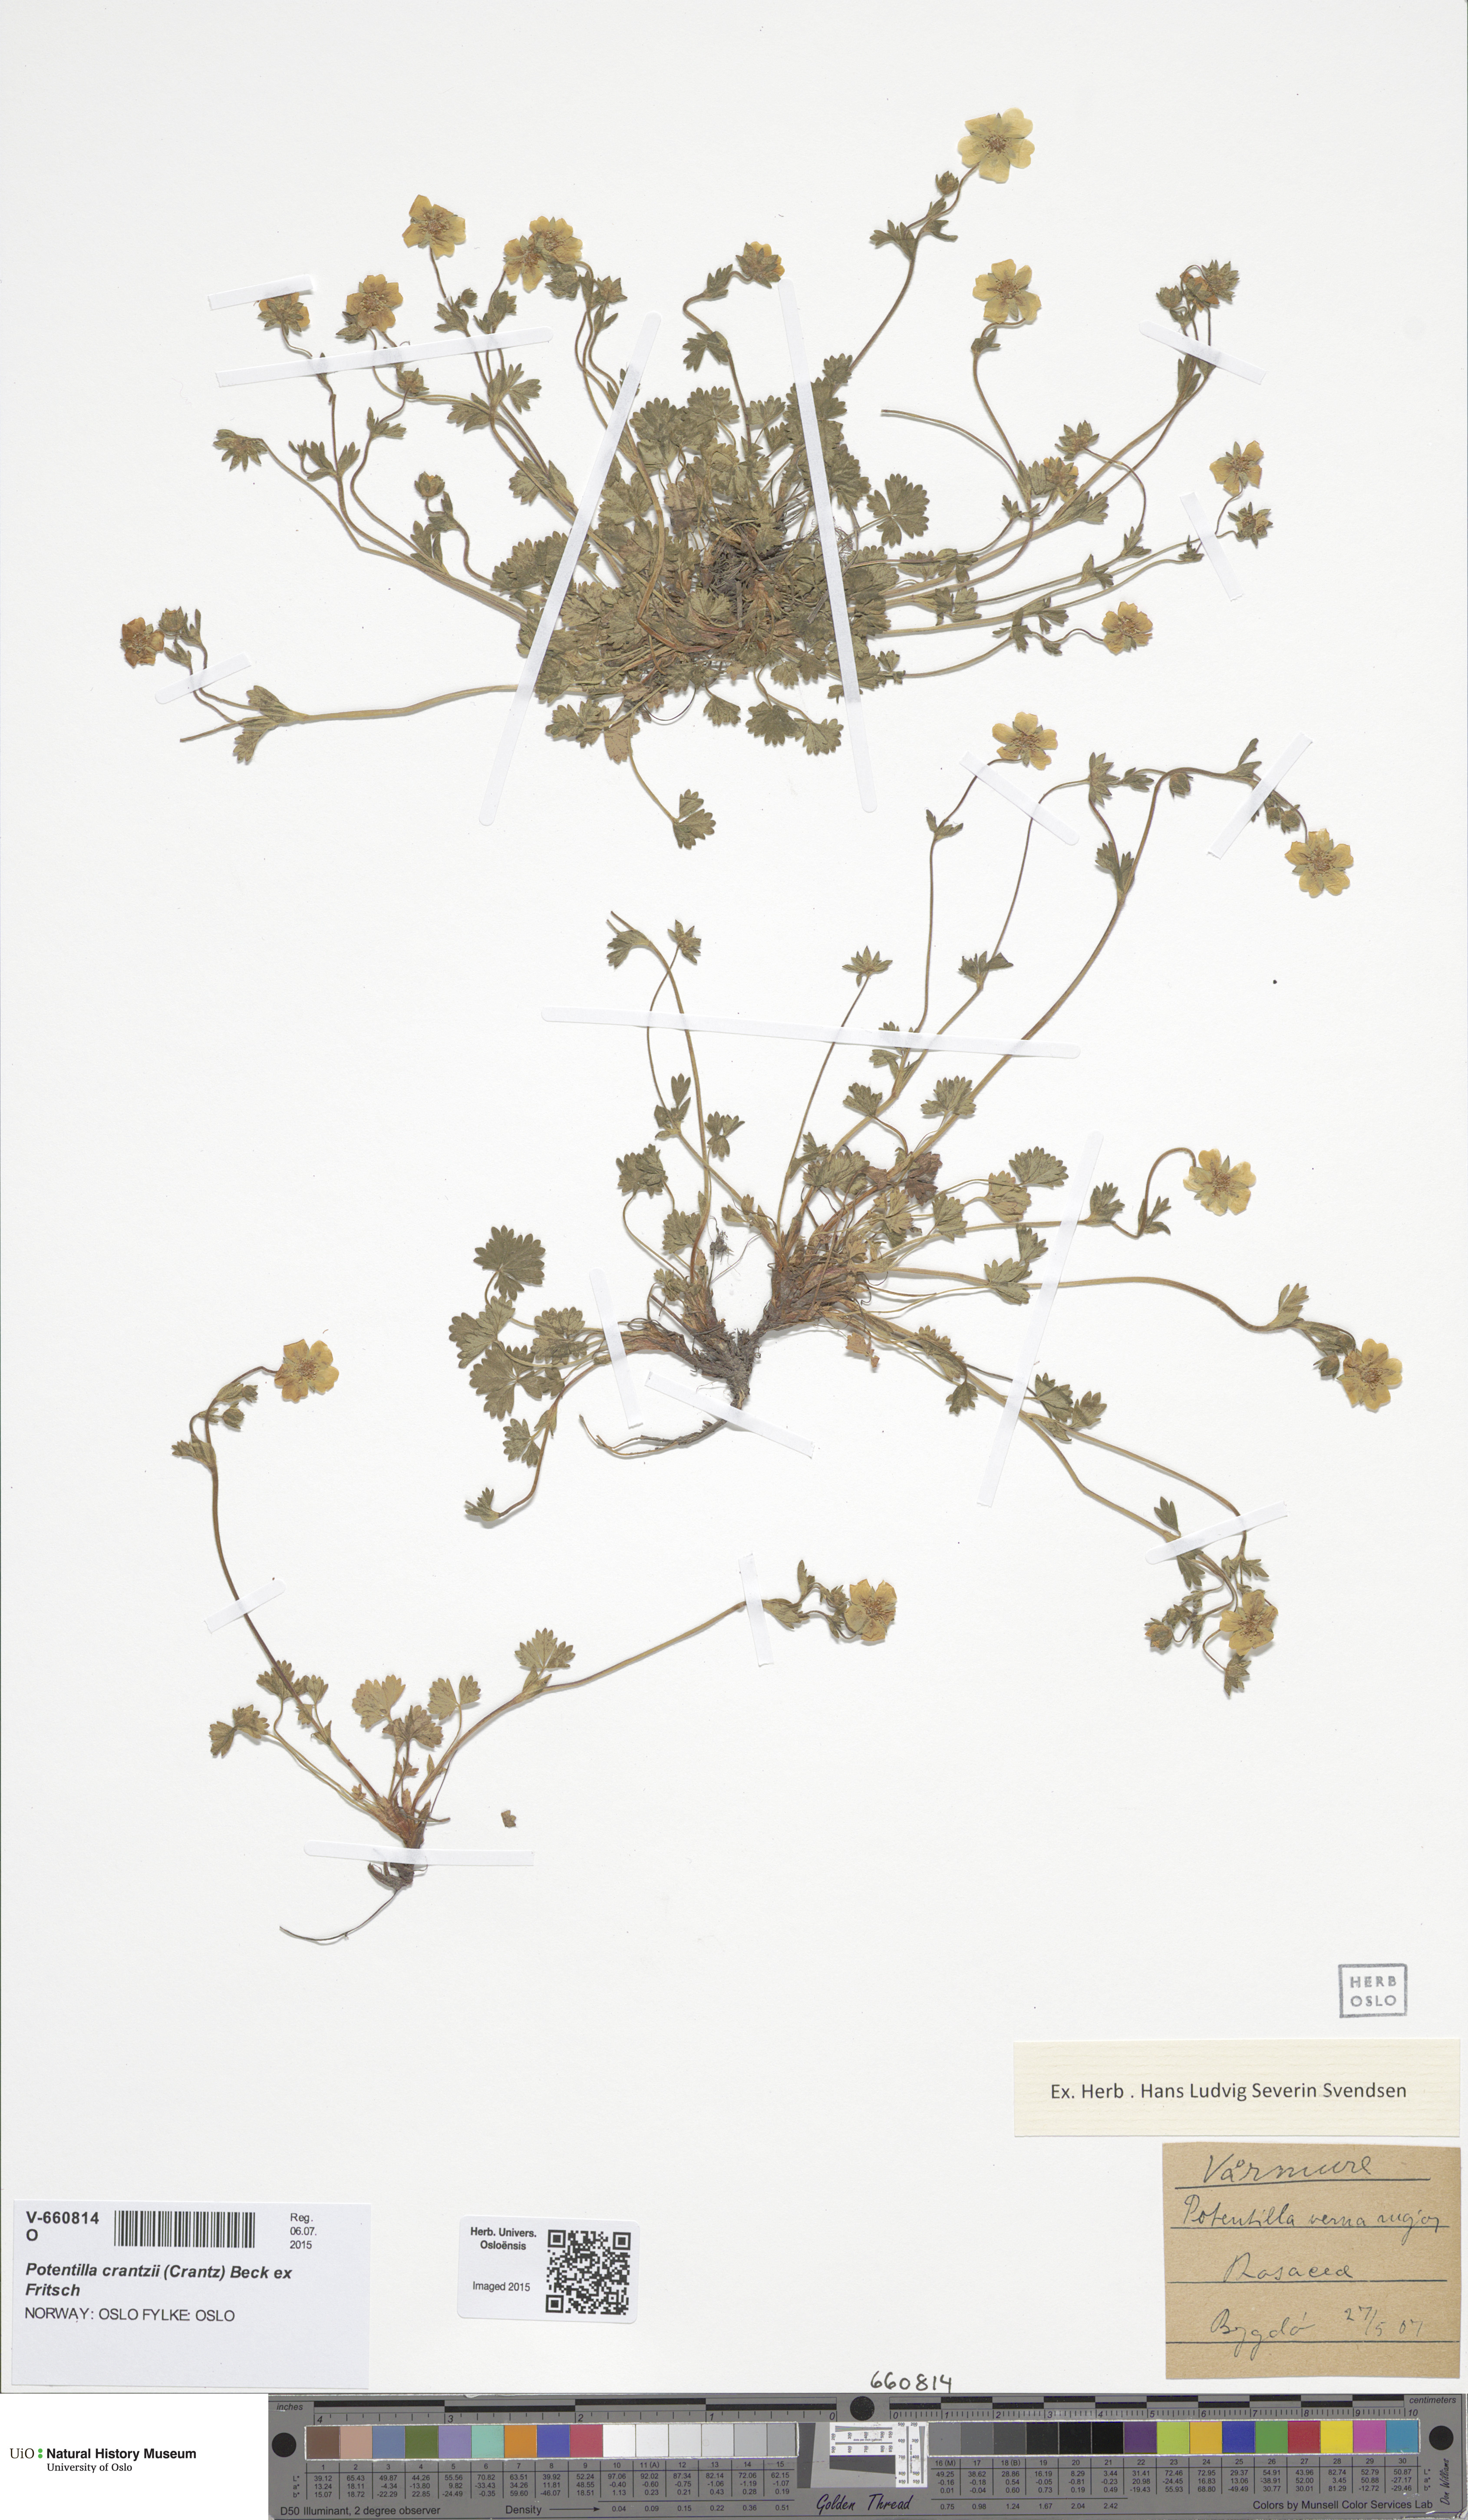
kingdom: Plantae
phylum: Tracheophyta
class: Magnoliopsida
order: Rosales
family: Rosaceae
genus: Potentilla
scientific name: Potentilla crantzii
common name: Alpine cinquefoil
